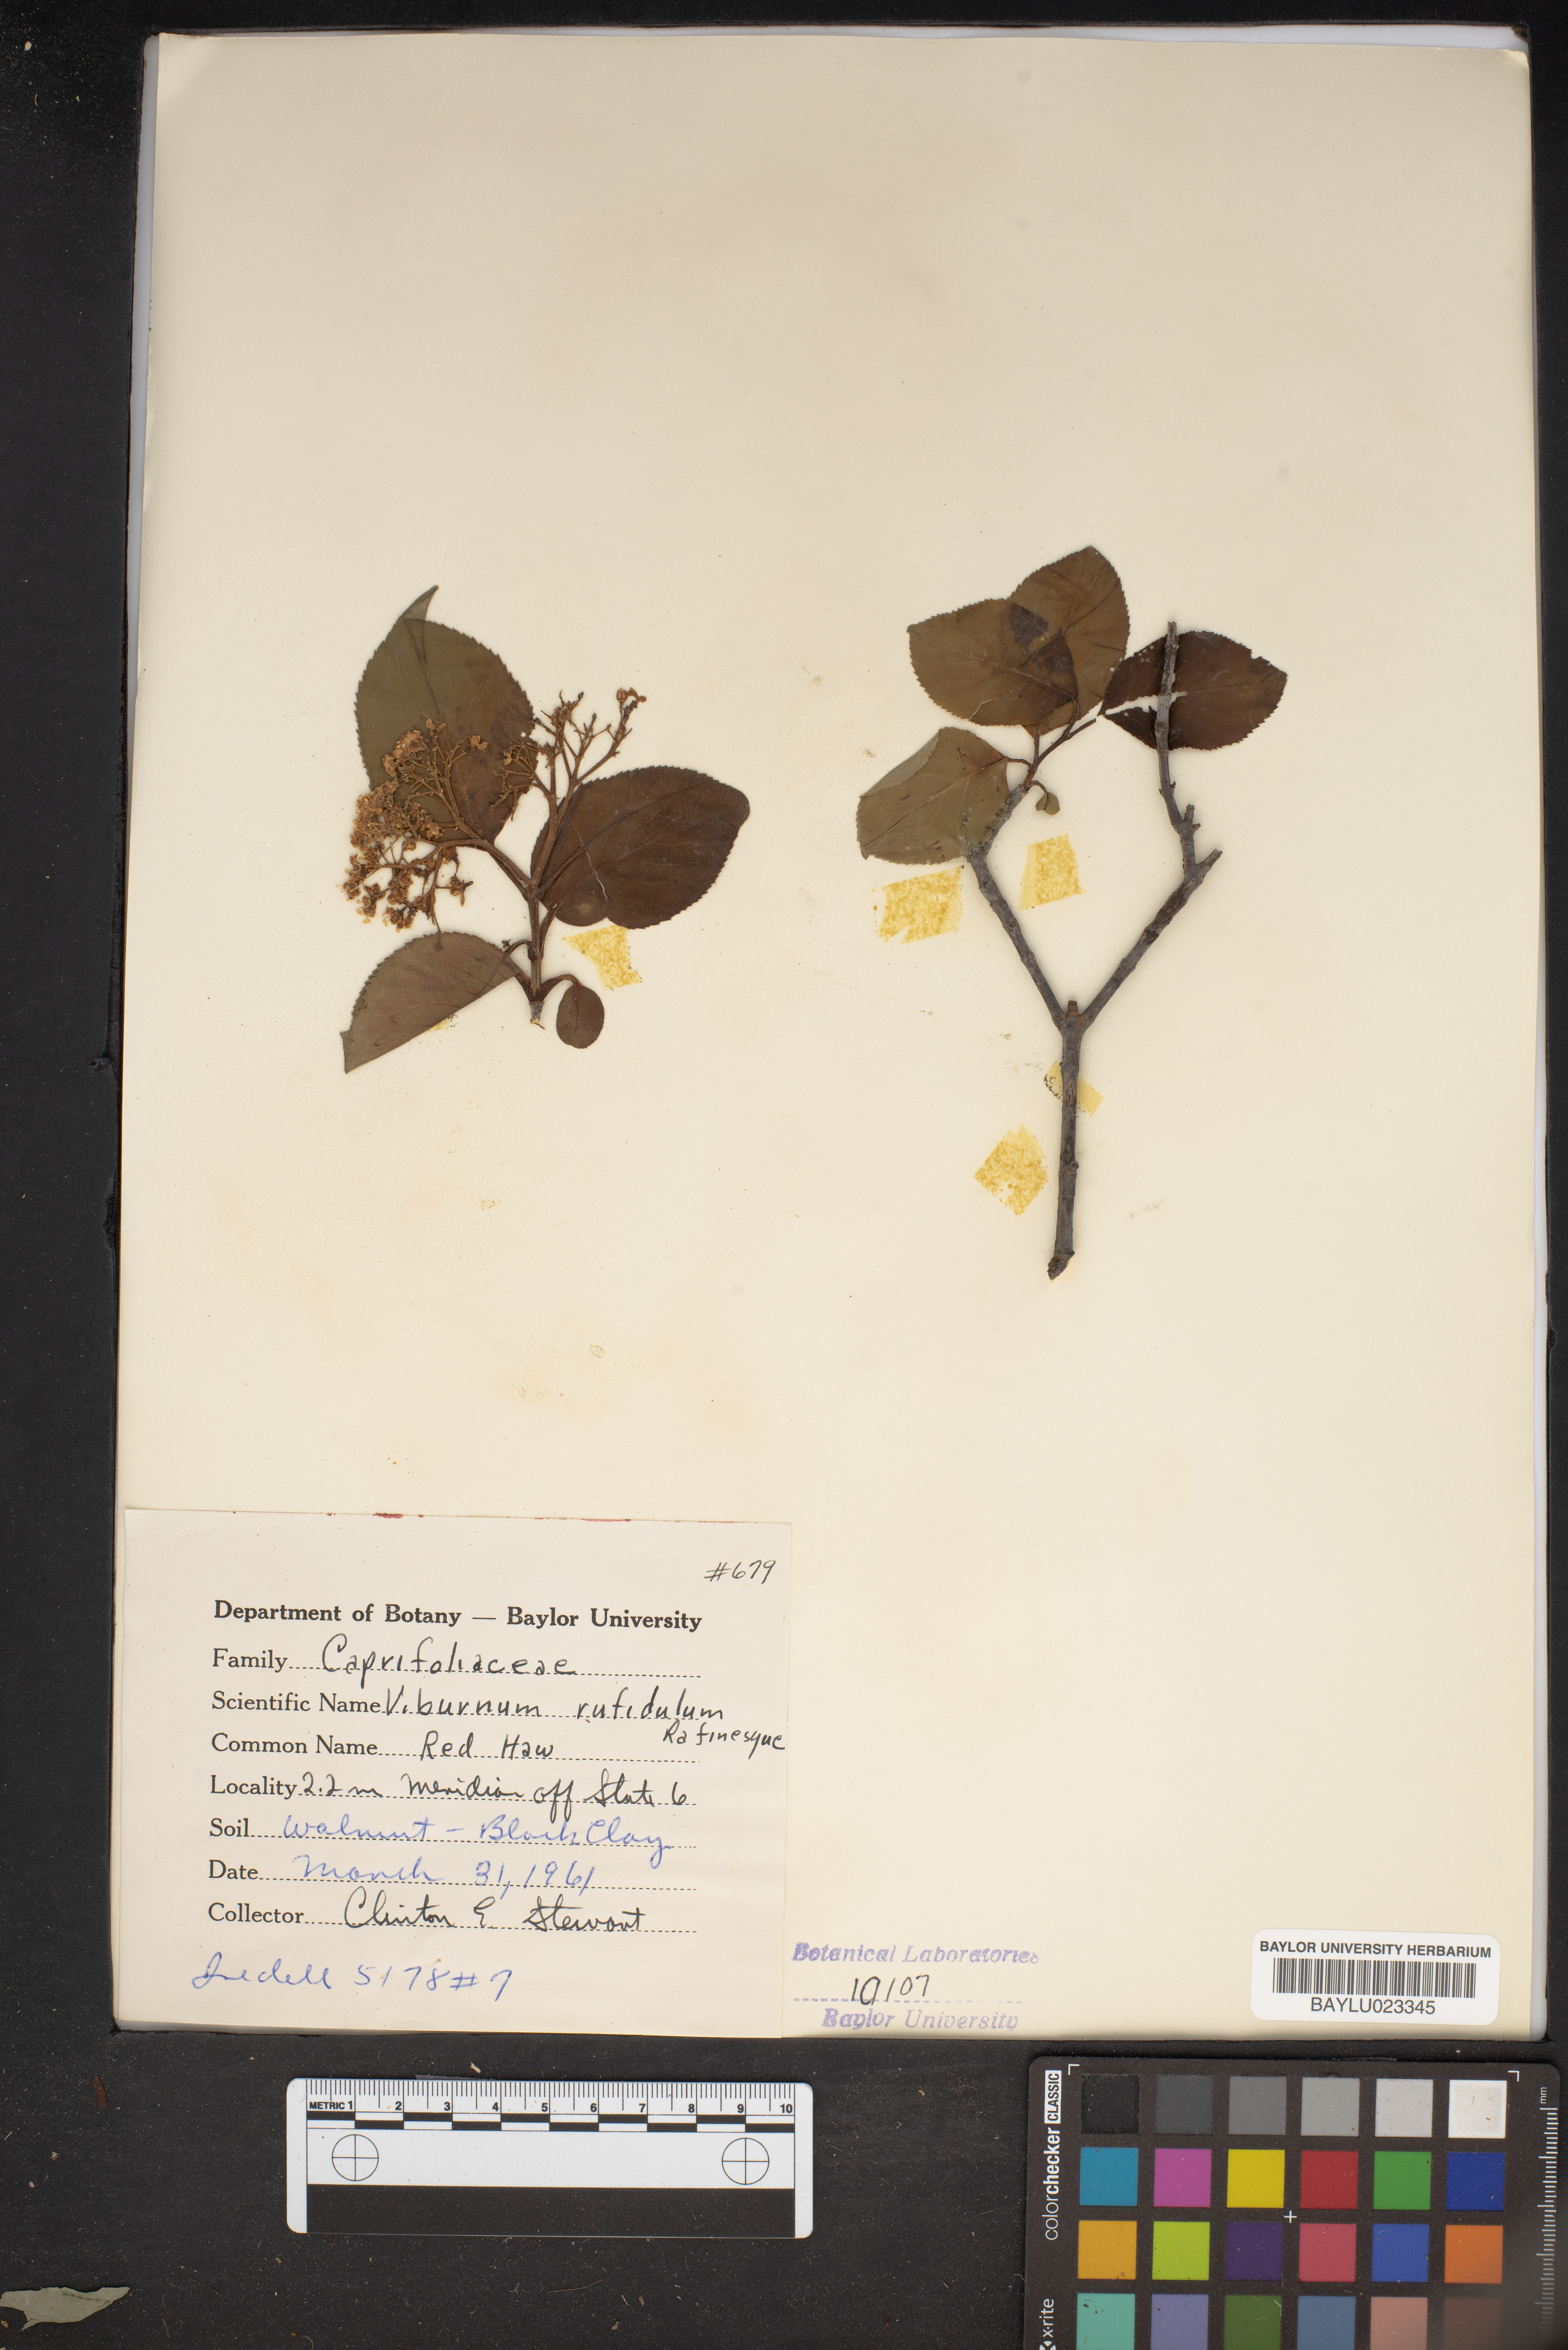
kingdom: Plantae
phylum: Tracheophyta
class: Magnoliopsida
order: Dipsacales
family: Viburnaceae
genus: Viburnum
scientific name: Viburnum rufidulum
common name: Blue haw
